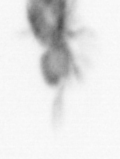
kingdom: Animalia
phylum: Arthropoda
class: Copepoda
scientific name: Copepoda
